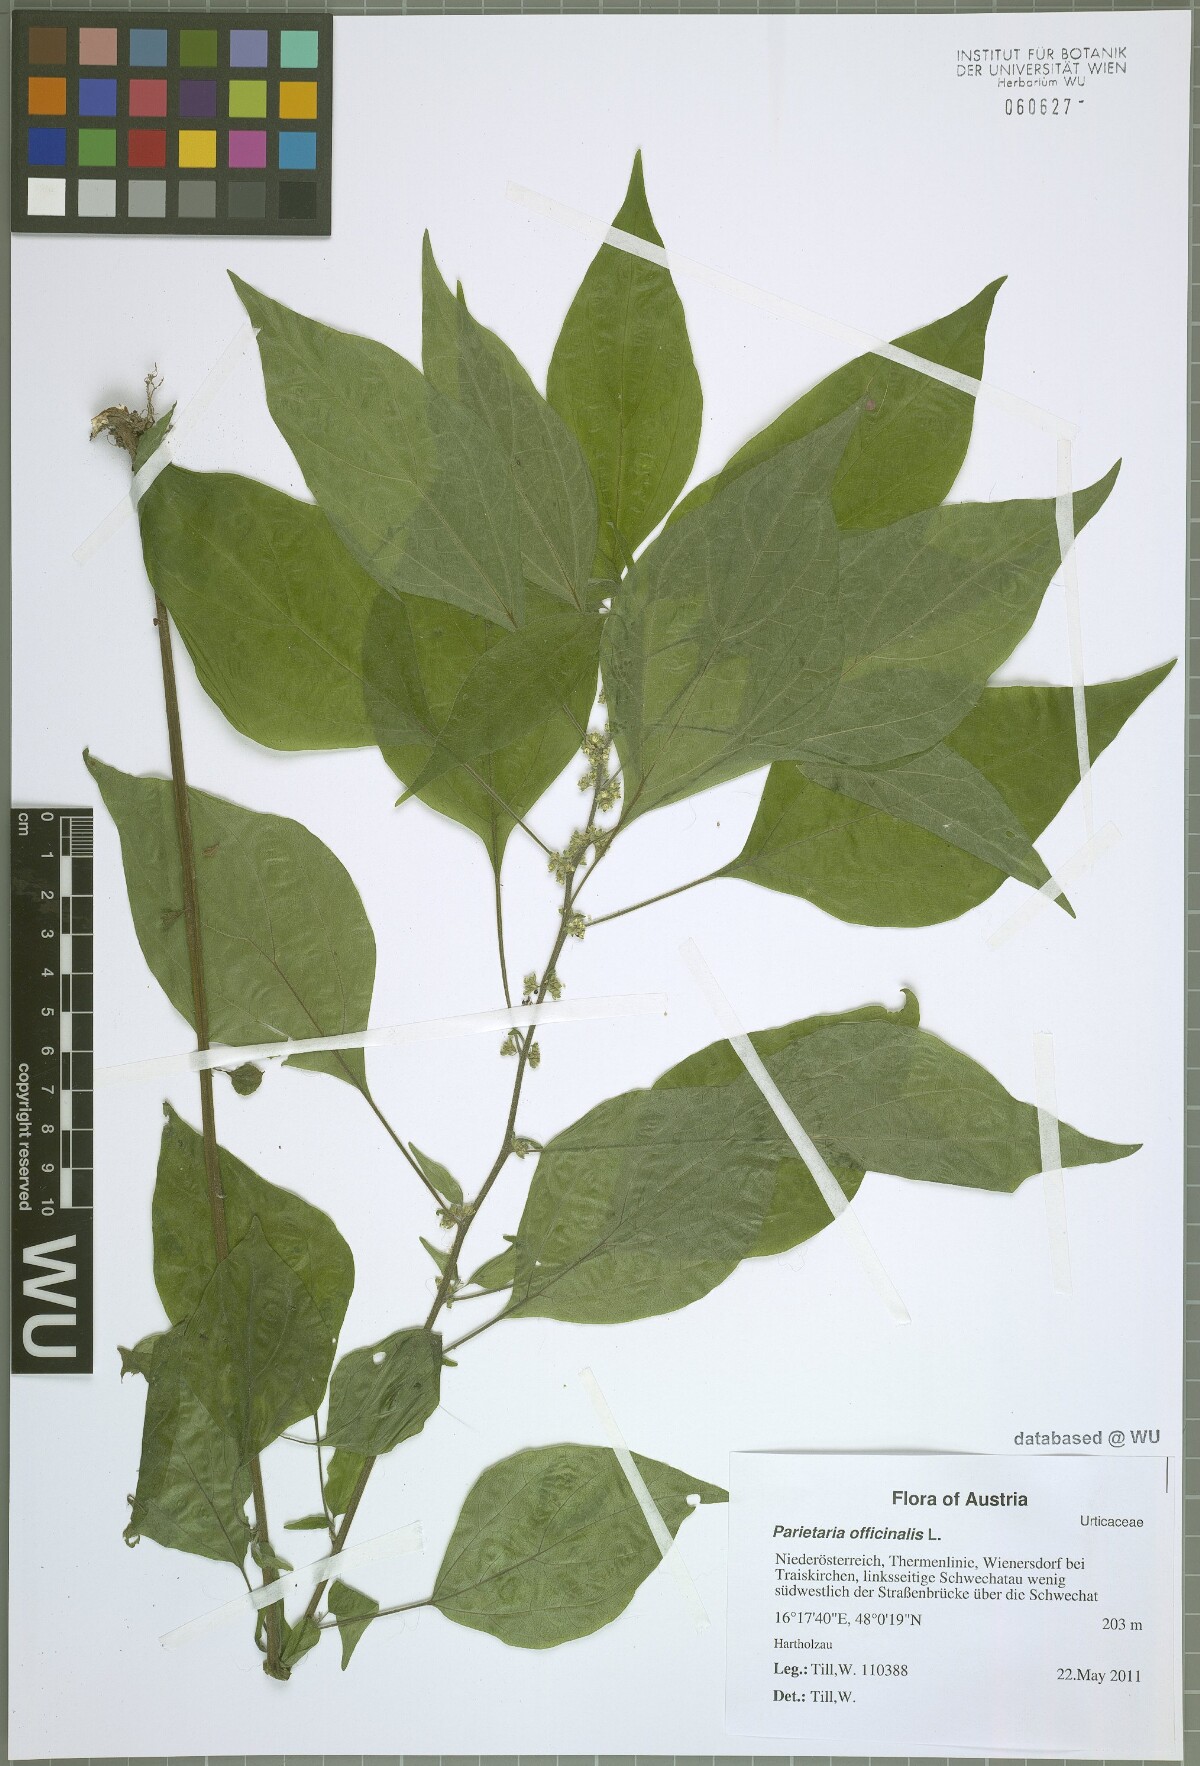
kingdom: Plantae
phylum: Tracheophyta
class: Magnoliopsida
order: Rosales
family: Urticaceae
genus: Parietaria
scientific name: Parietaria officinalis
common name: Eastern pellitory-of-the-wall
